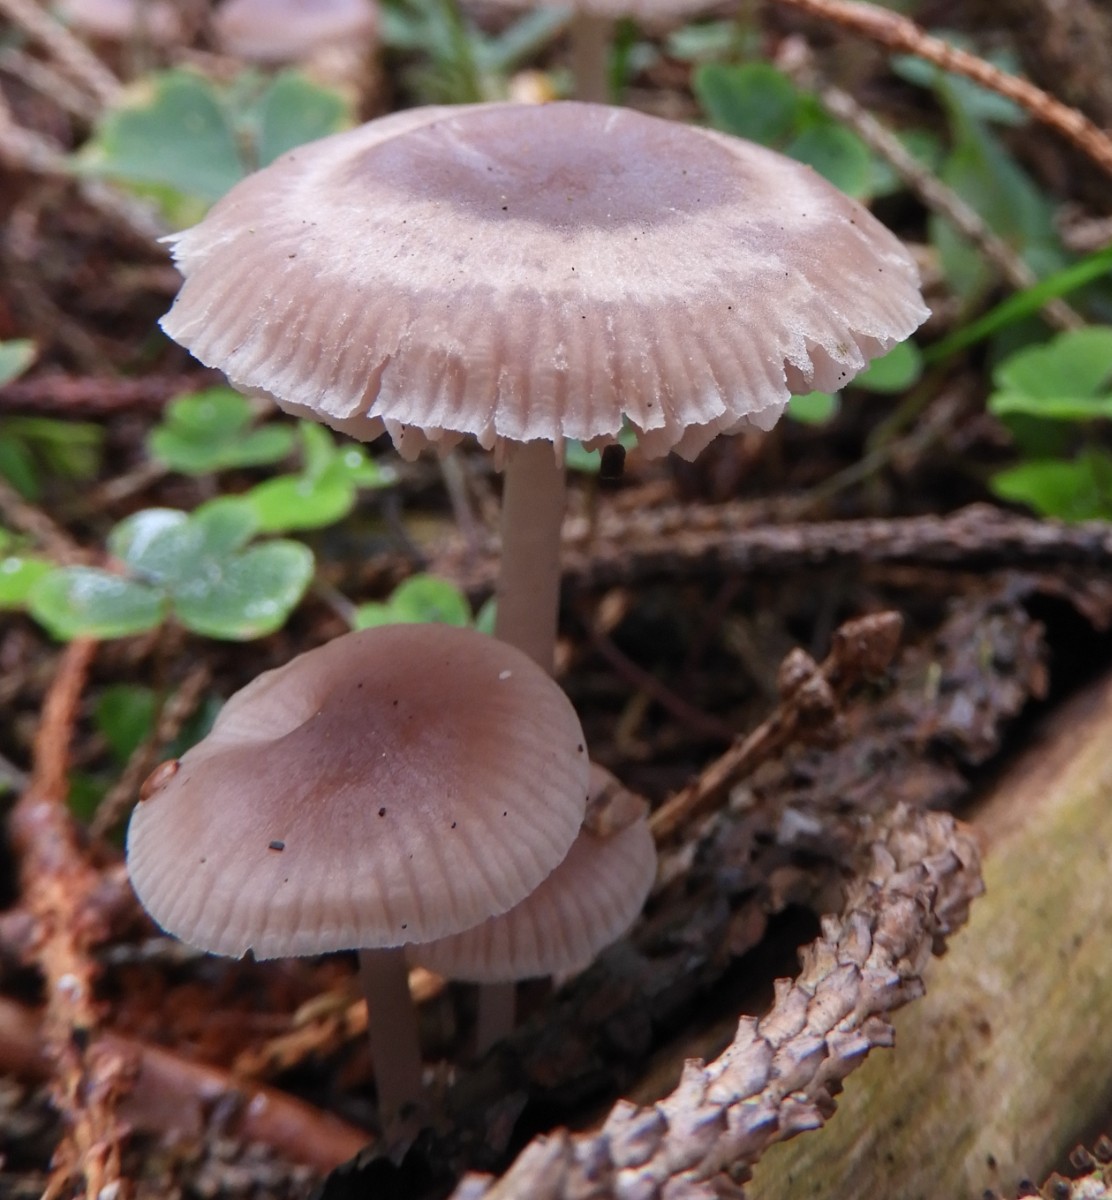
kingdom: Fungi
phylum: Basidiomycota
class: Agaricomycetes
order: Agaricales
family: Mycenaceae
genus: Mycena
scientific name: Mycena rosea
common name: rosa huesvamp
